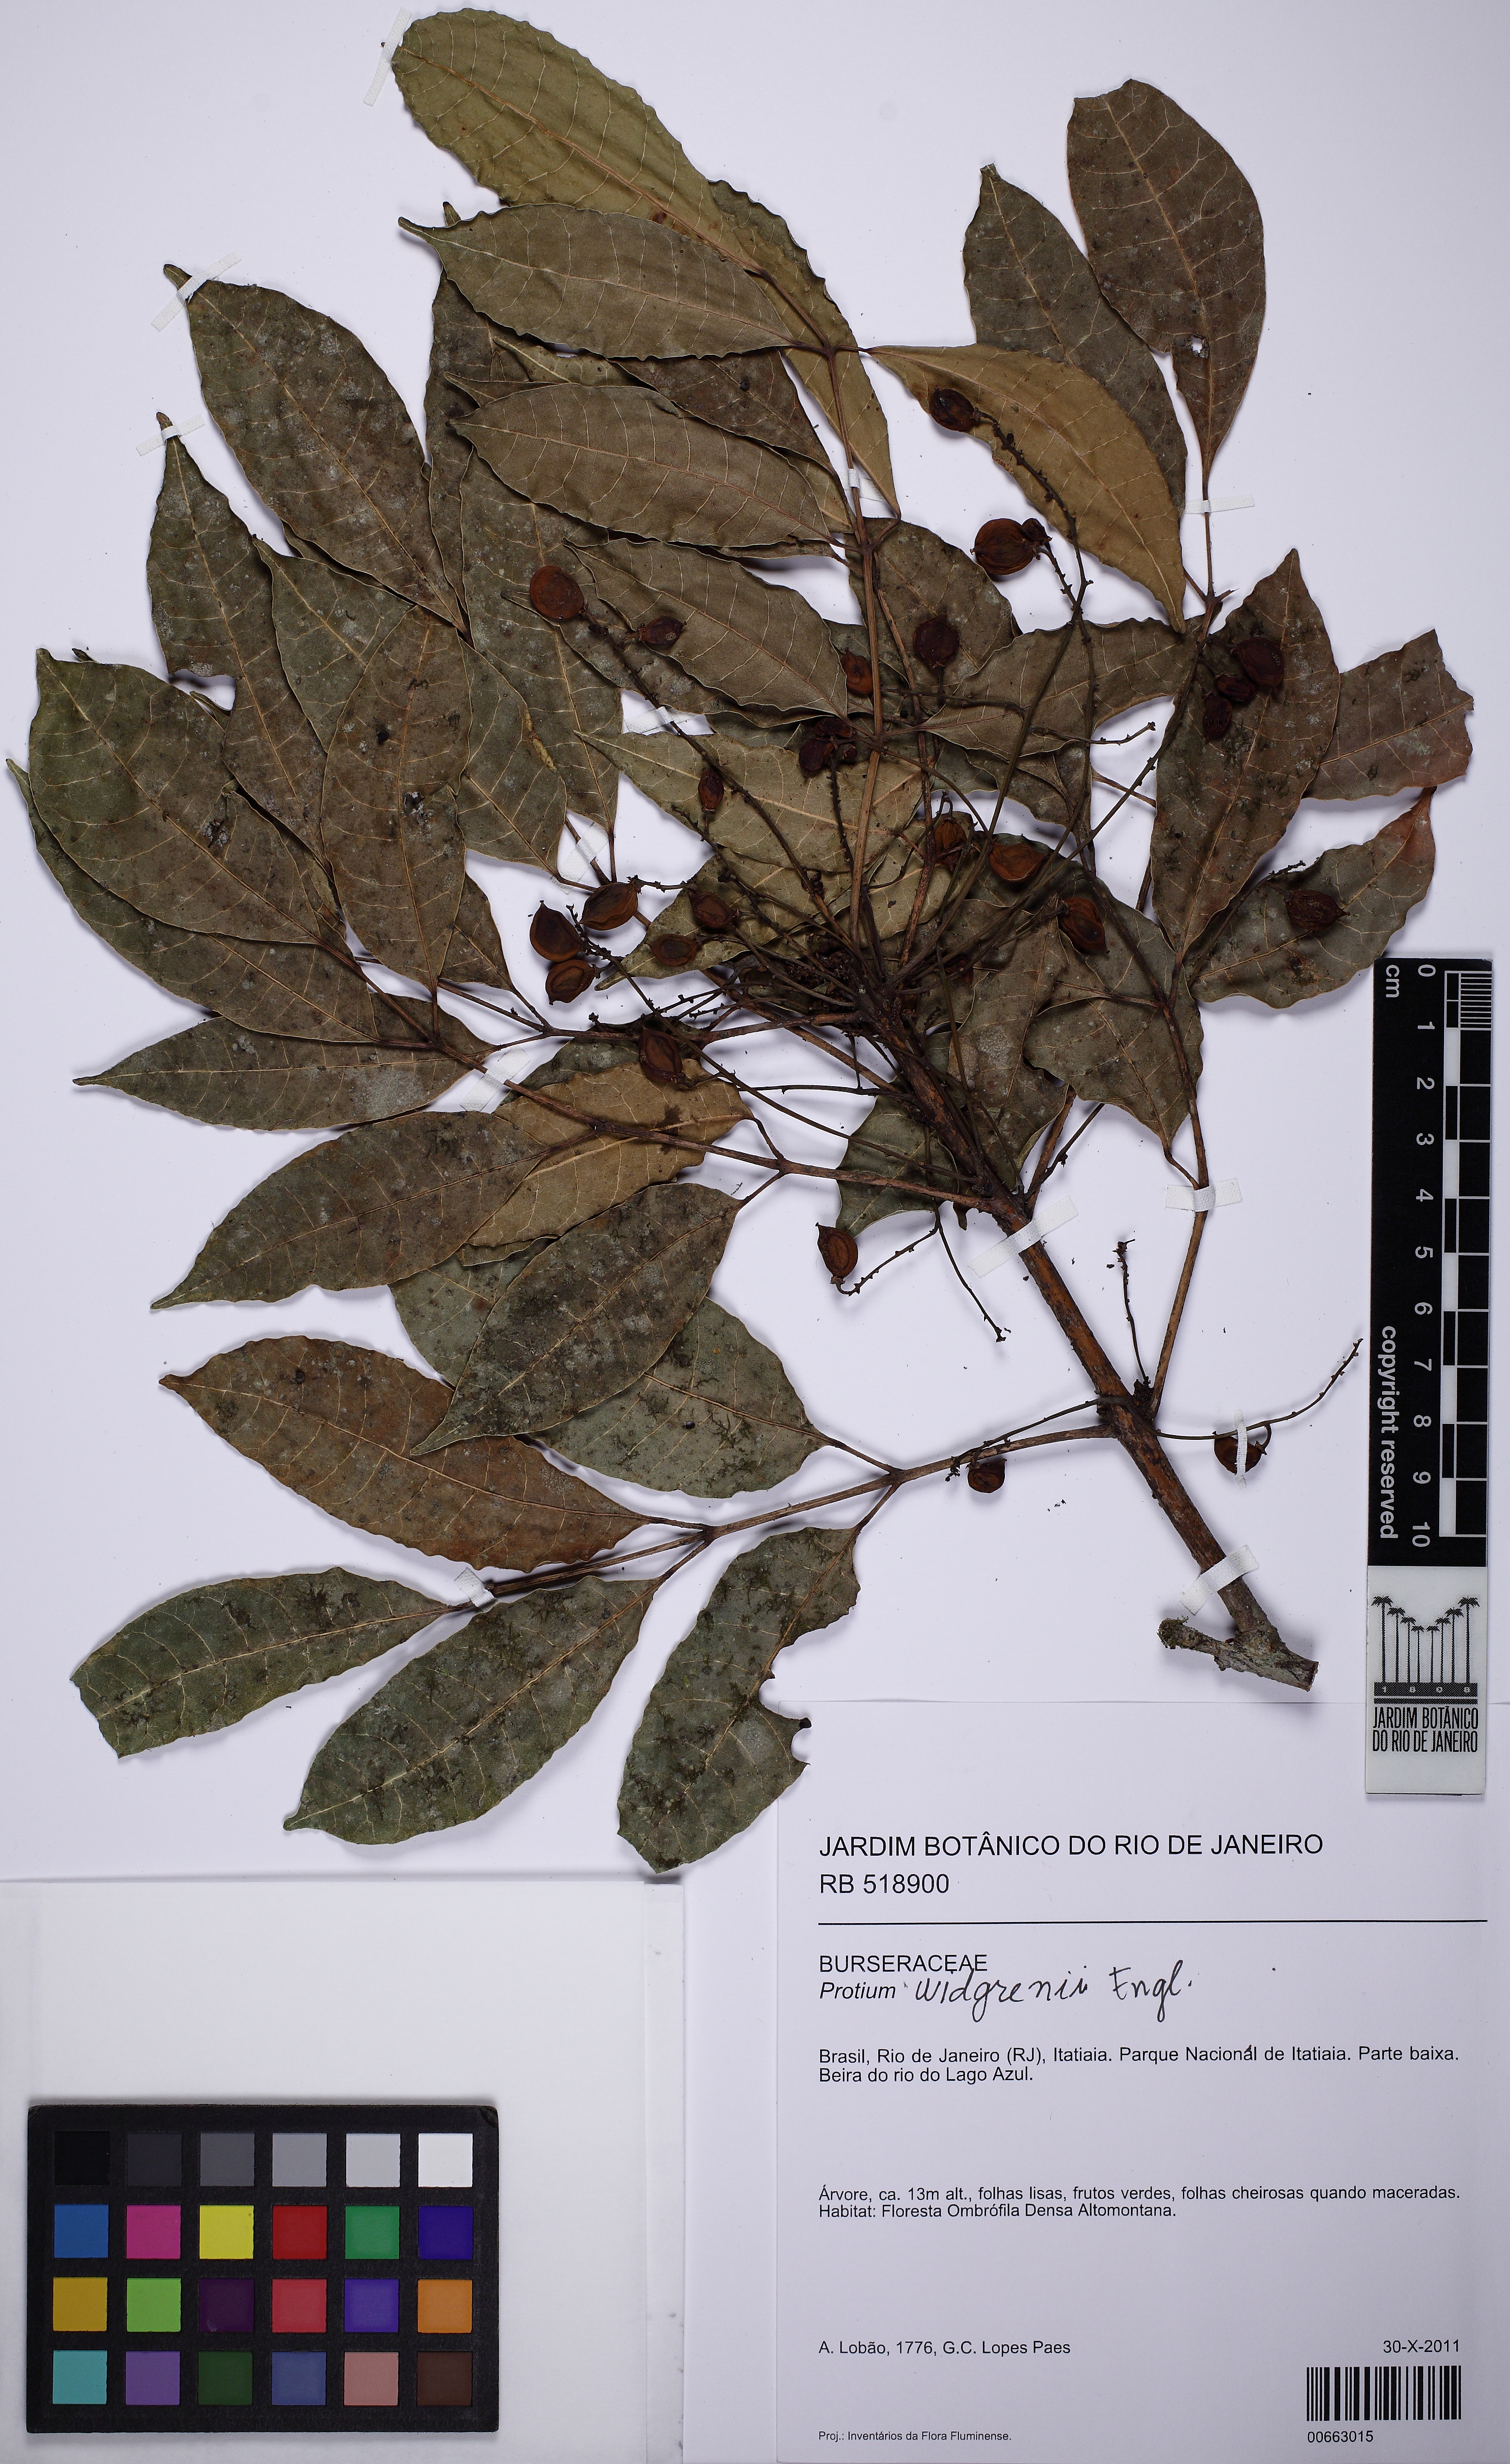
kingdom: Plantae
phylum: Tracheophyta
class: Magnoliopsida
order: Sapindales
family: Burseraceae
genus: Protium
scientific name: Protium widgrenii
